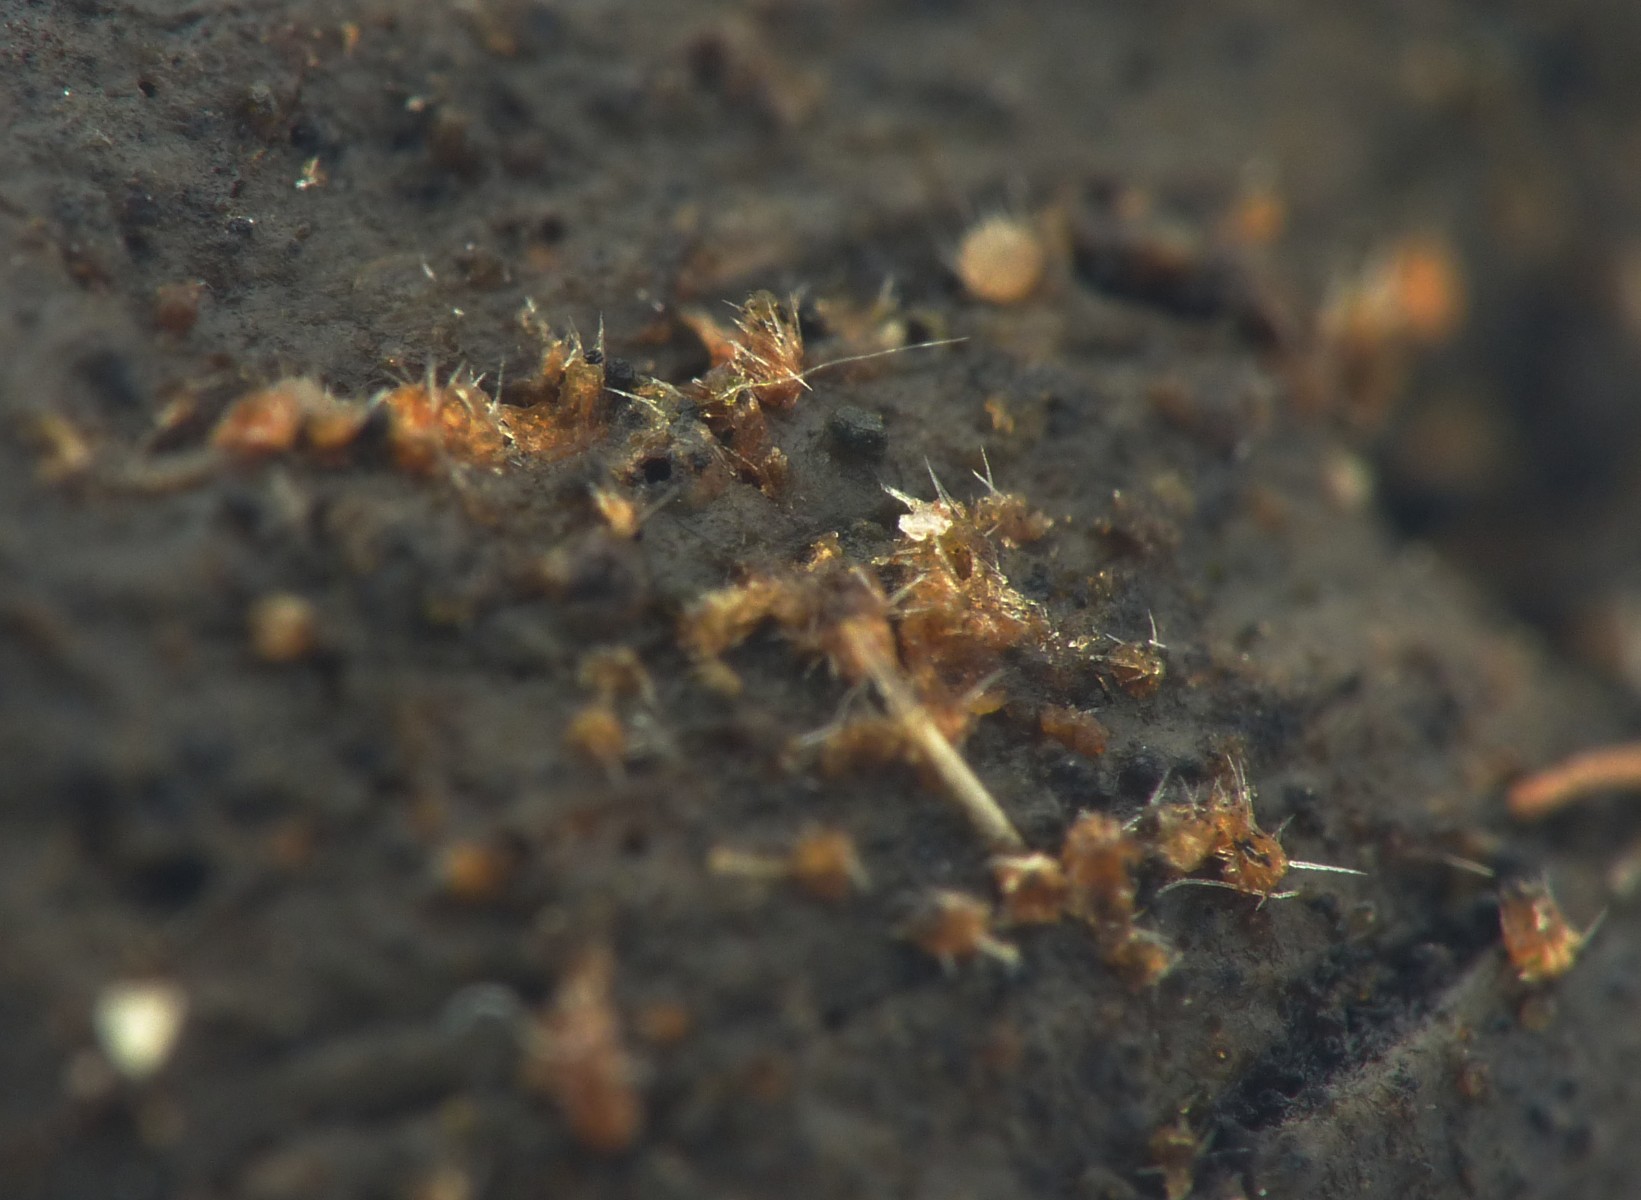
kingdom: Fungi
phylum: Ascomycota
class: Pezizomycetes
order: Pezizales
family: Ascodesmidaceae
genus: Lasiobolus
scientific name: Lasiobolus cuniculi
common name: toradet øjebæger
